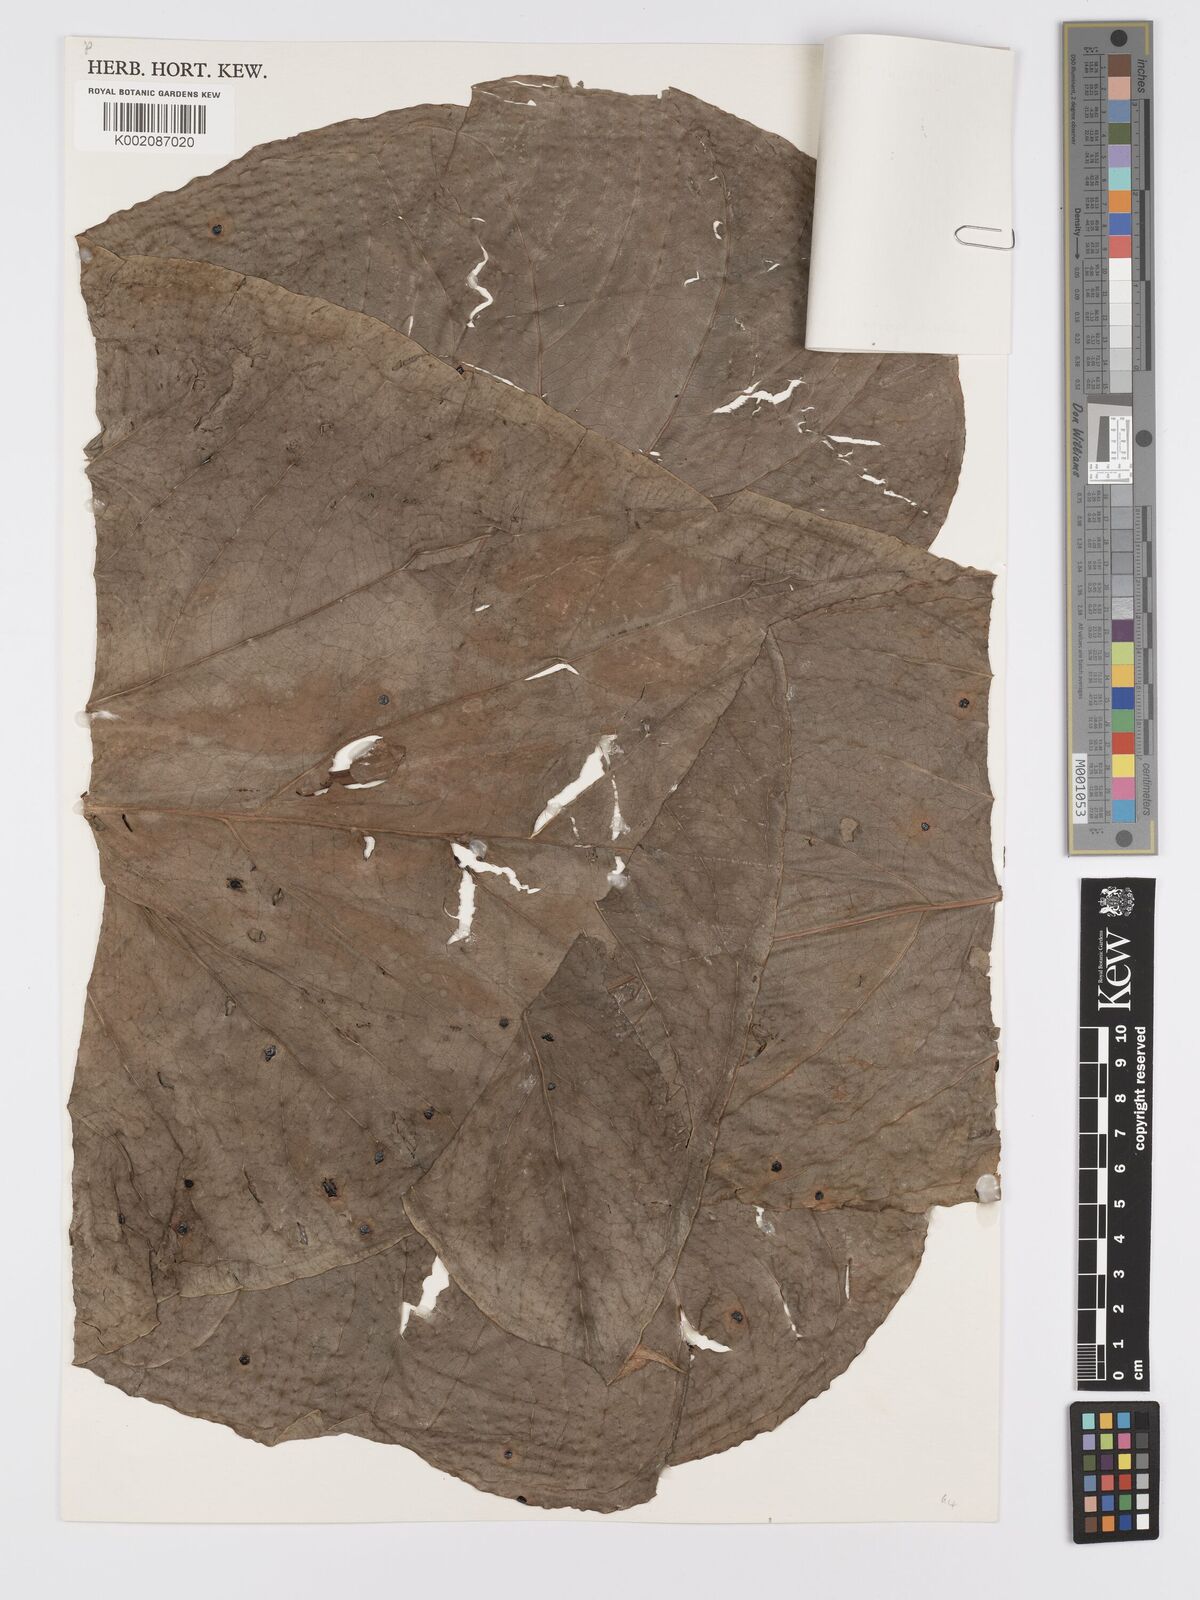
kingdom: Plantae
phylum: Tracheophyta
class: Liliopsida
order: Alismatales
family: Araceae
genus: Anthurium
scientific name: Anthurium signatum
